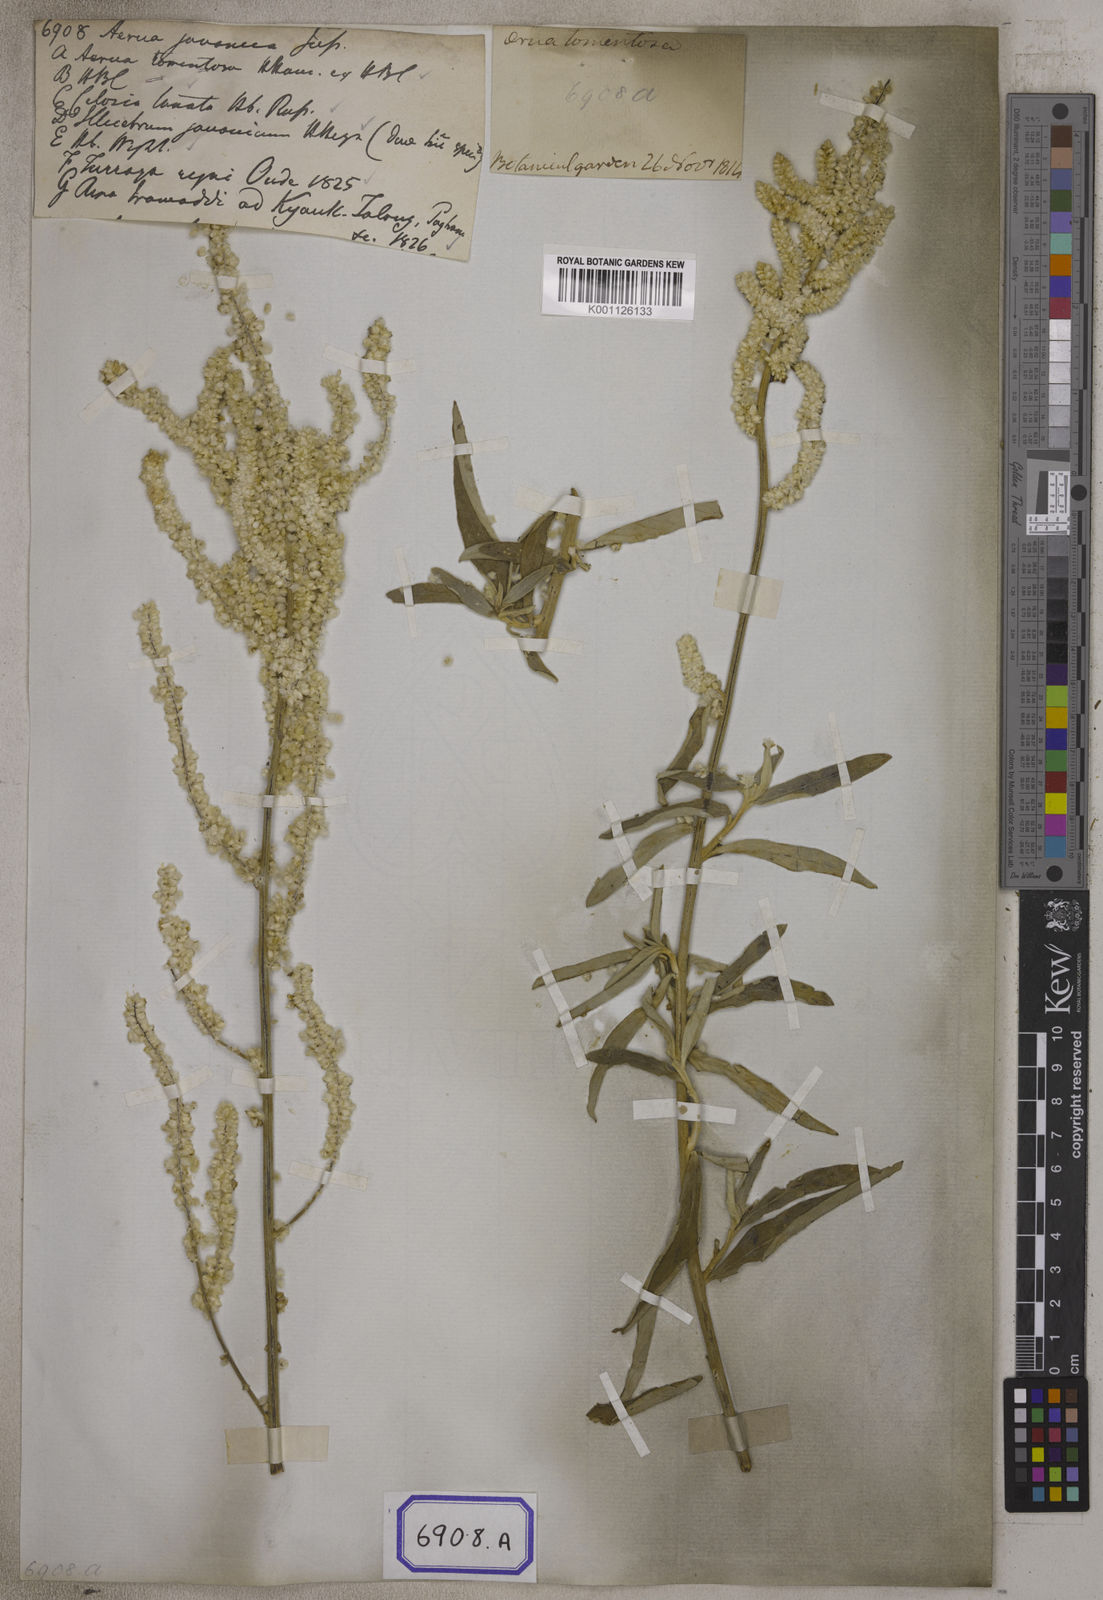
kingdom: Plantae
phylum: Tracheophyta
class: Magnoliopsida
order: Caryophyllales
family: Amaranthaceae
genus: Aerva
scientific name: Aerva
